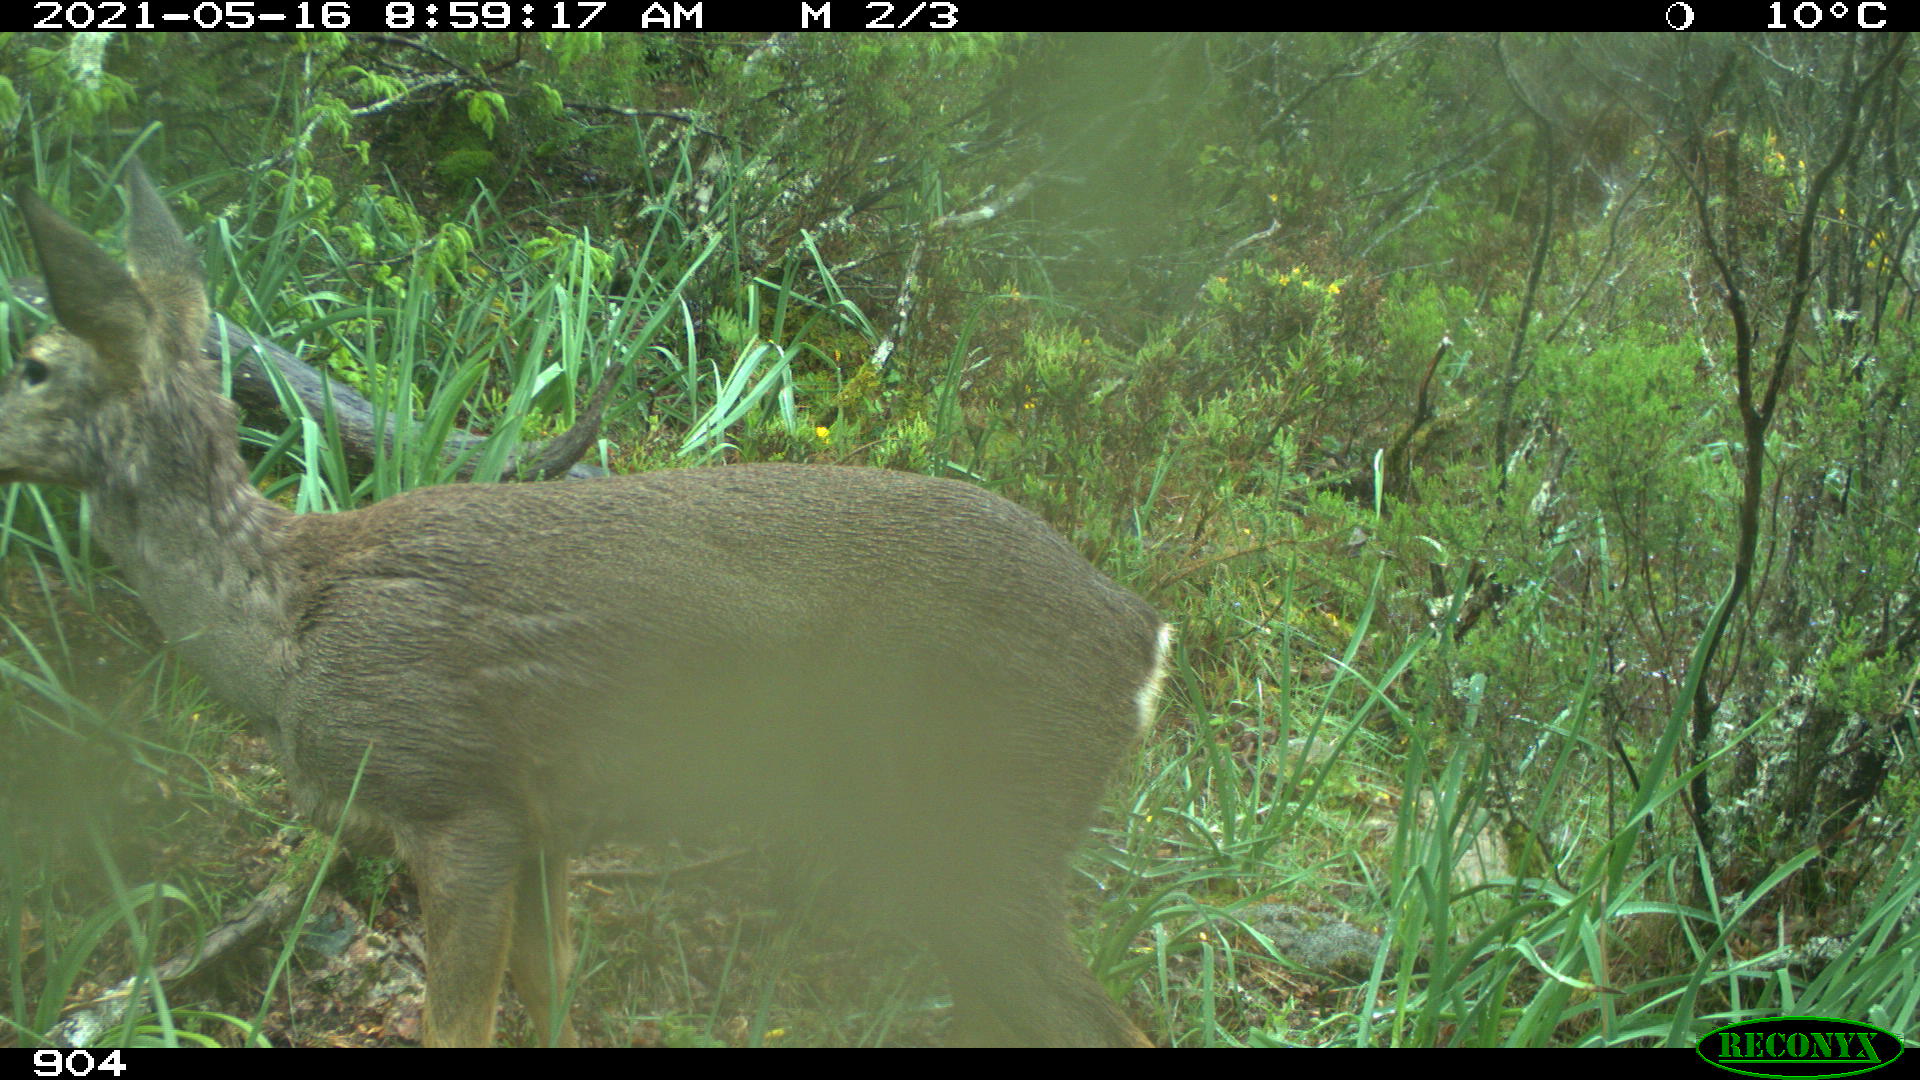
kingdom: Animalia
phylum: Chordata
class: Mammalia
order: Artiodactyla
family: Cervidae
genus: Capreolus
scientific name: Capreolus capreolus
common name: Western roe deer
